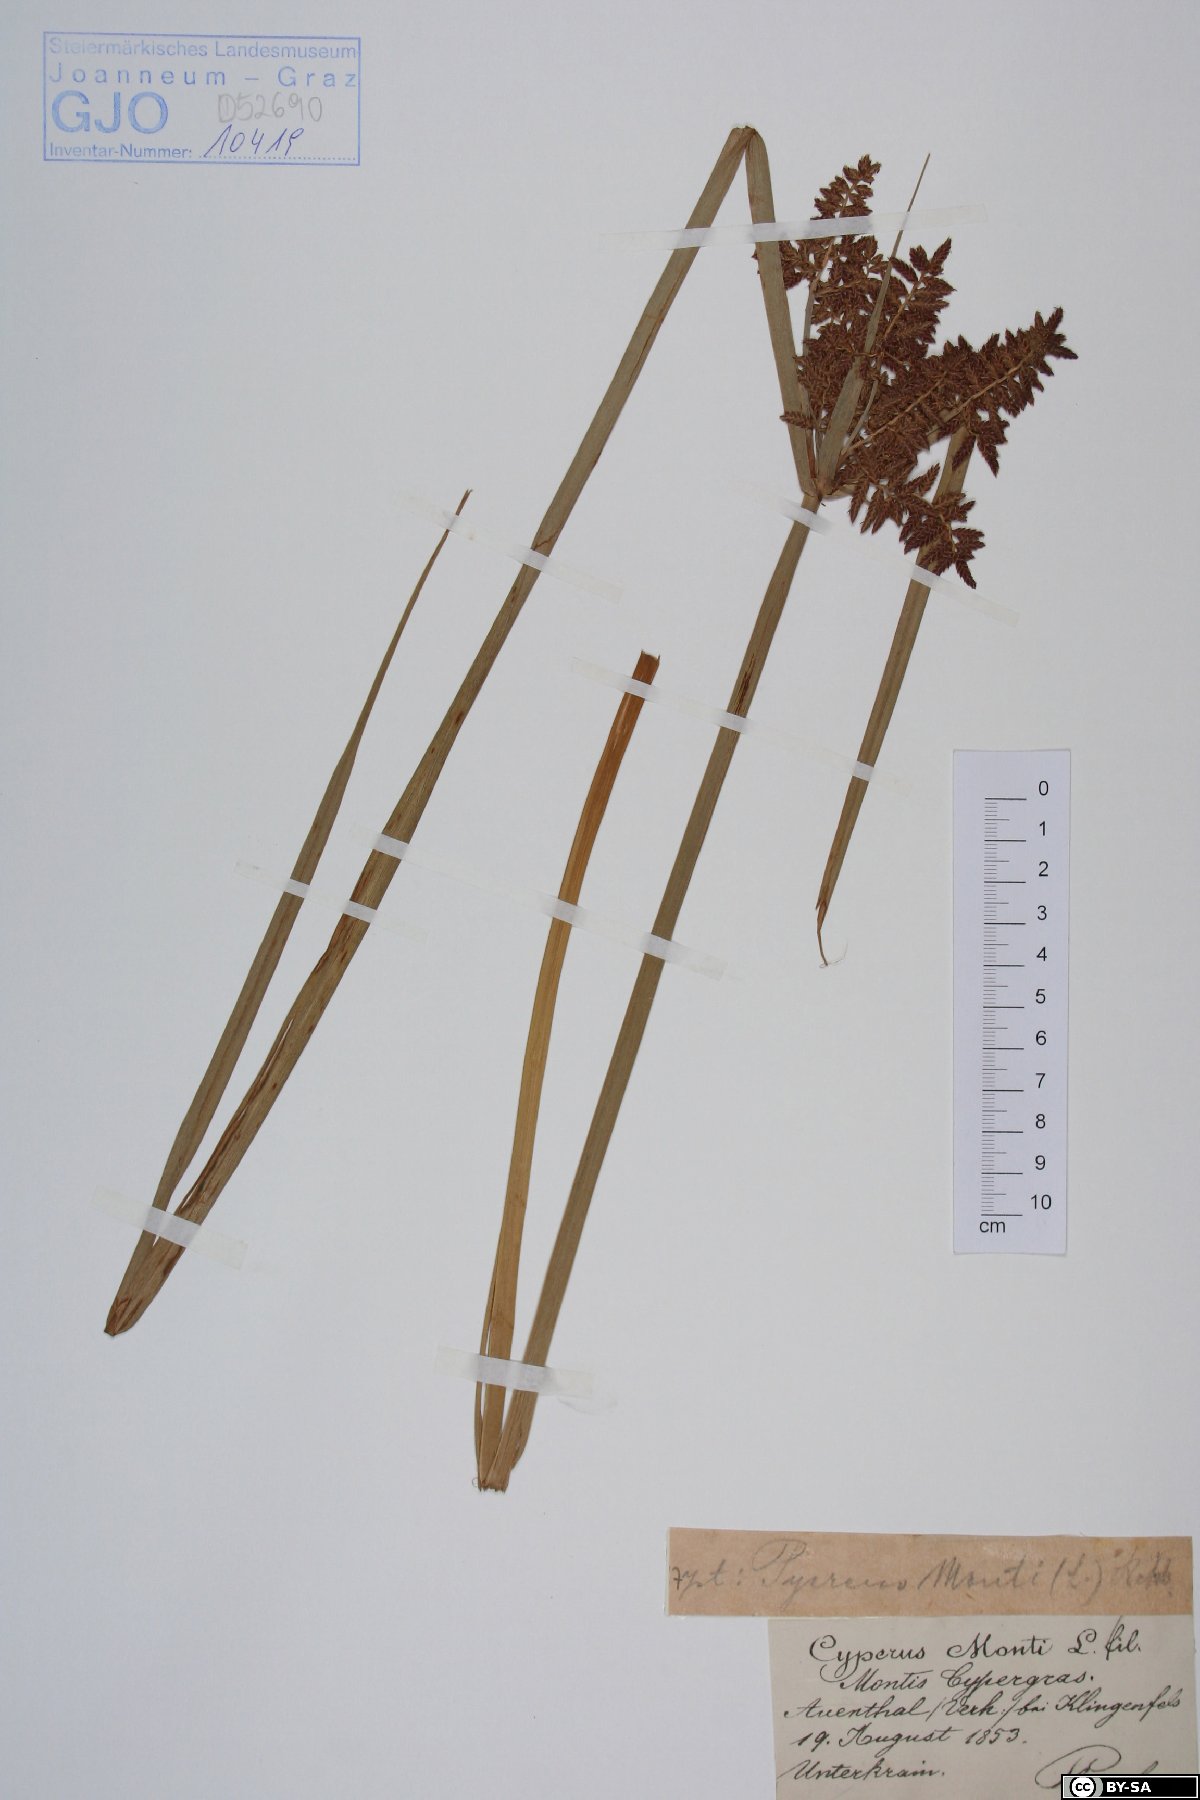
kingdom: Plantae
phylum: Tracheophyta
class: Liliopsida
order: Poales
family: Cyperaceae
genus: Cyperus
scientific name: Cyperus serotinus
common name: Tidalmarsh flatsedge
